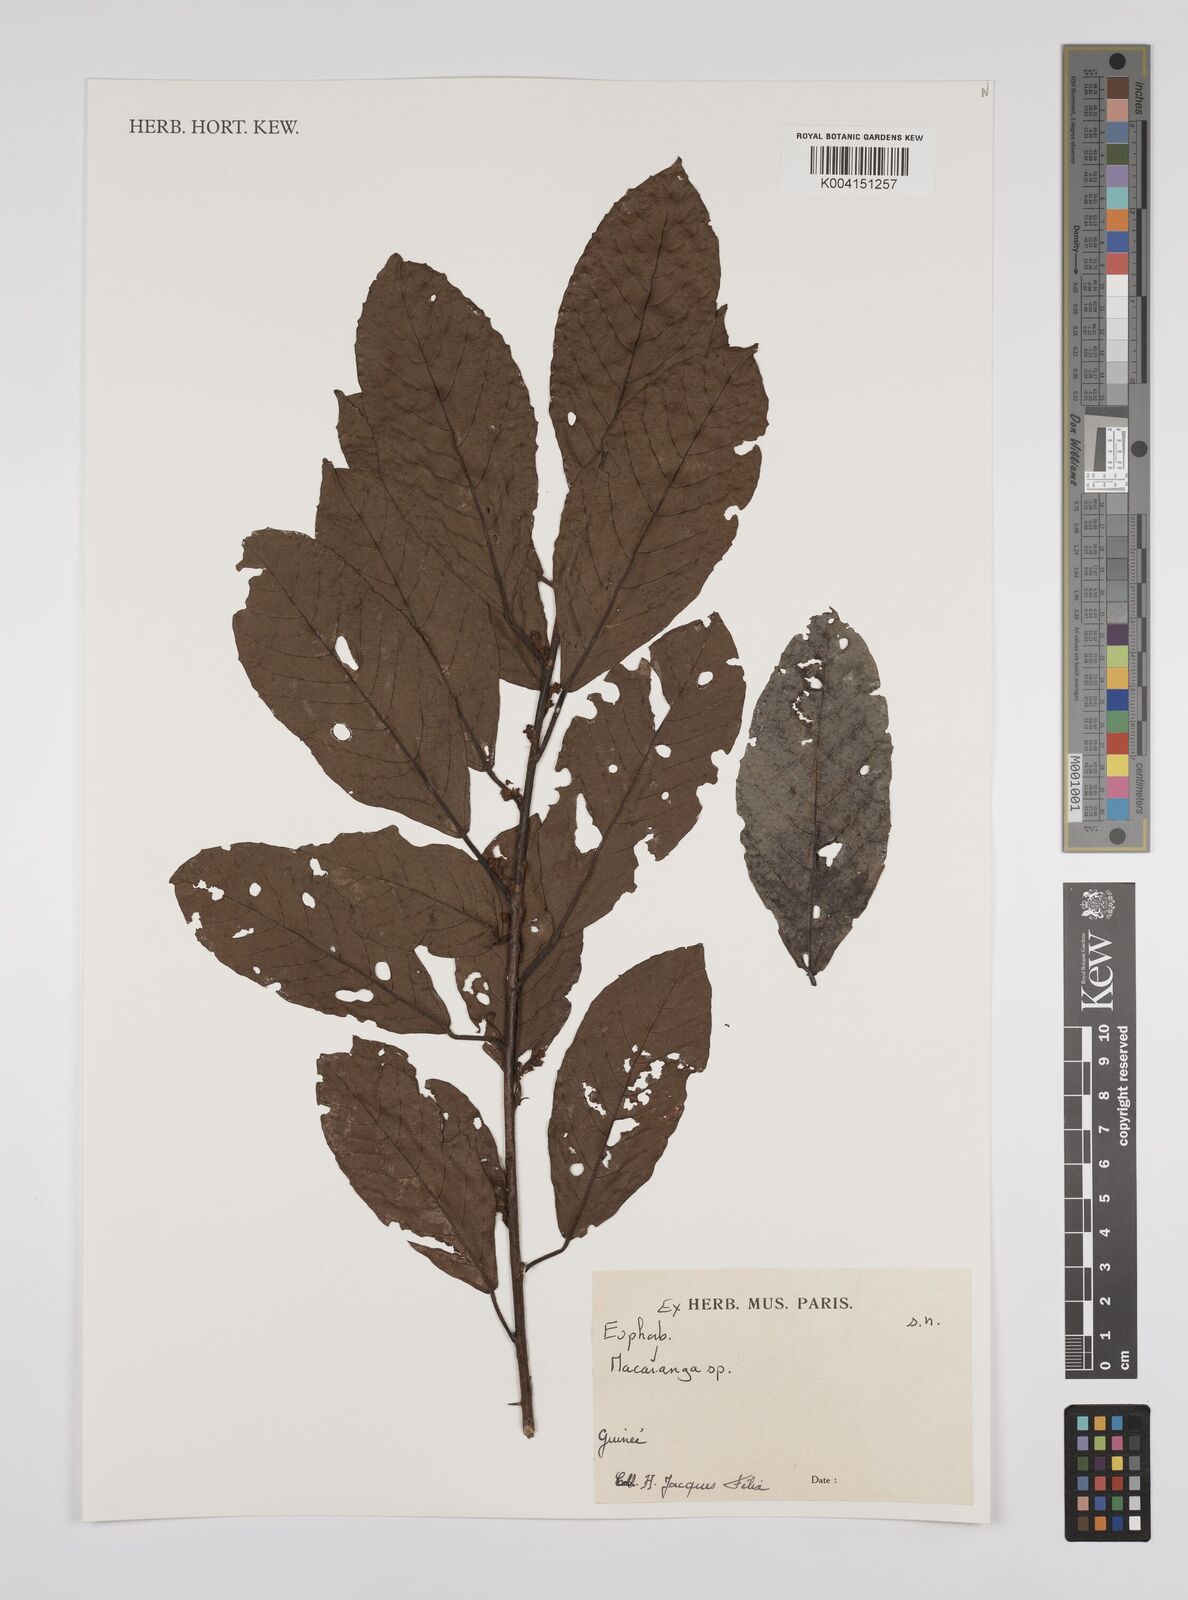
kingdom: Plantae
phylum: Tracheophyta
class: Magnoliopsida
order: Malpighiales
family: Euphorbiaceae
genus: Macaranga
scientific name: Macaranga
